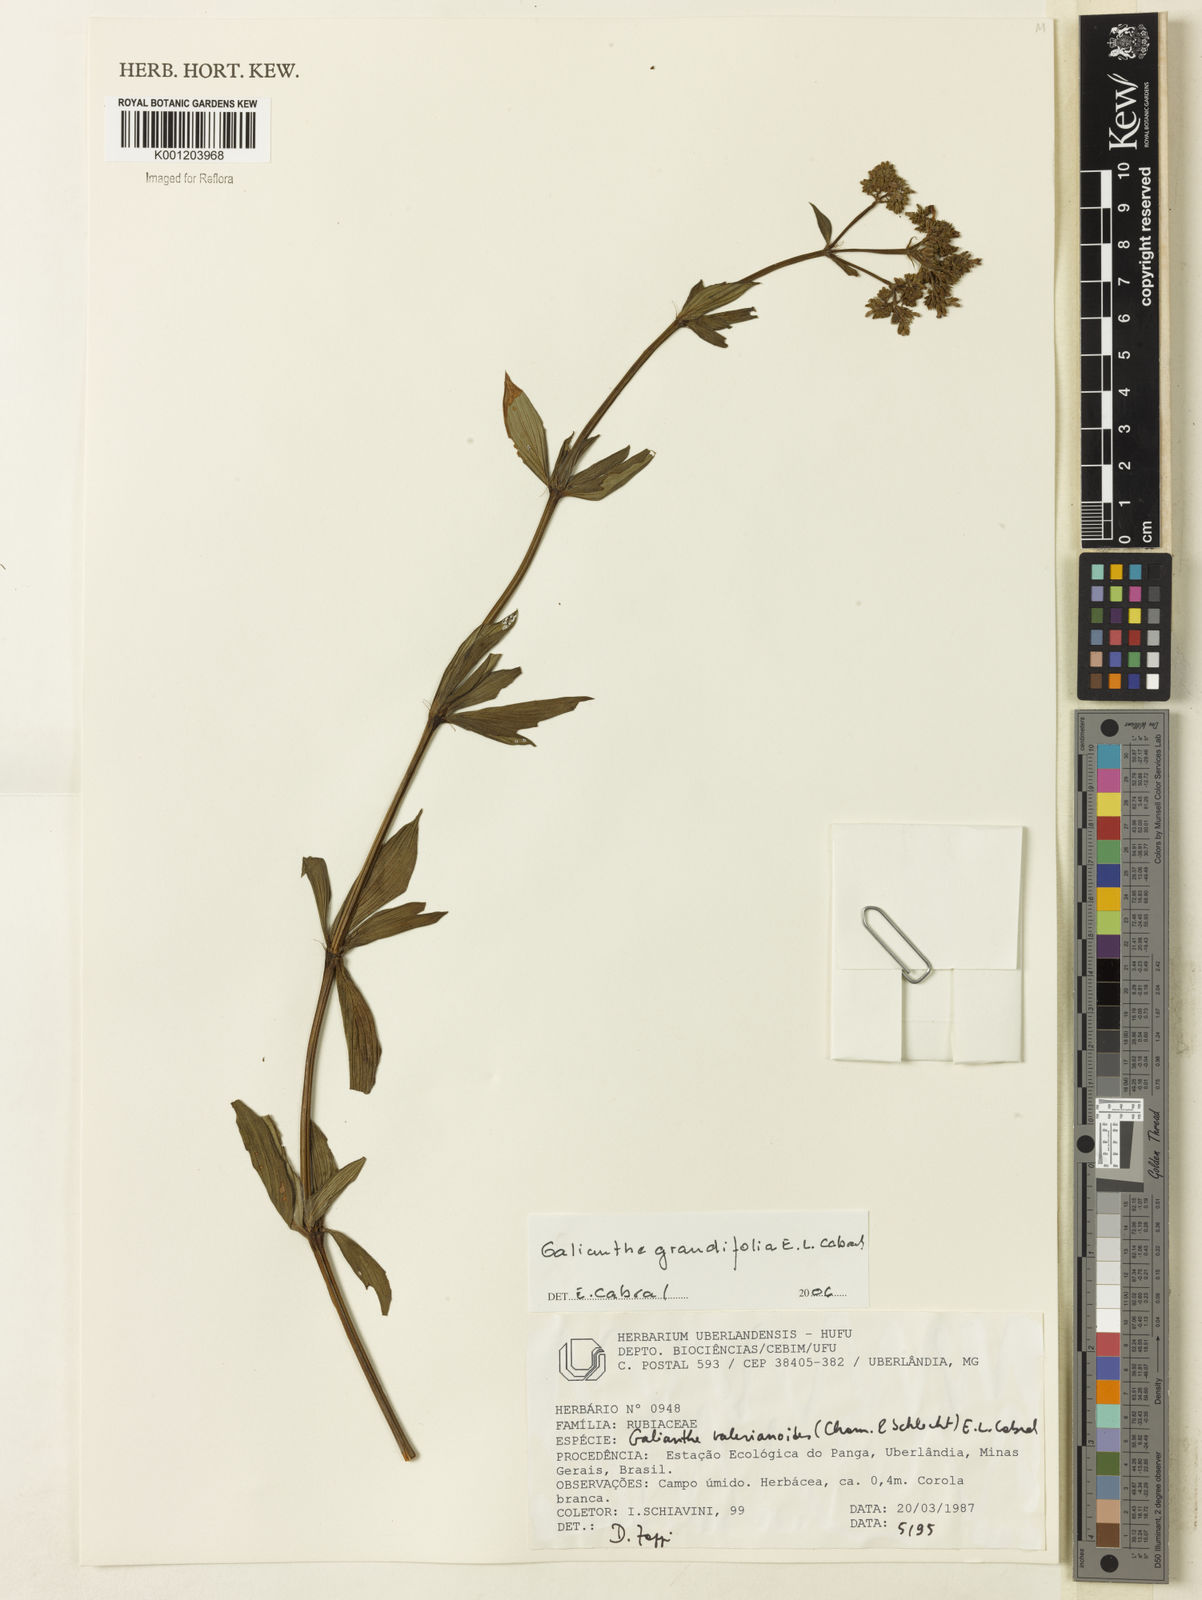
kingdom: Plantae
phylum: Tracheophyta
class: Magnoliopsida
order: Gentianales
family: Rubiaceae
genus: Galianthe
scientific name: Galianthe grandifolia
